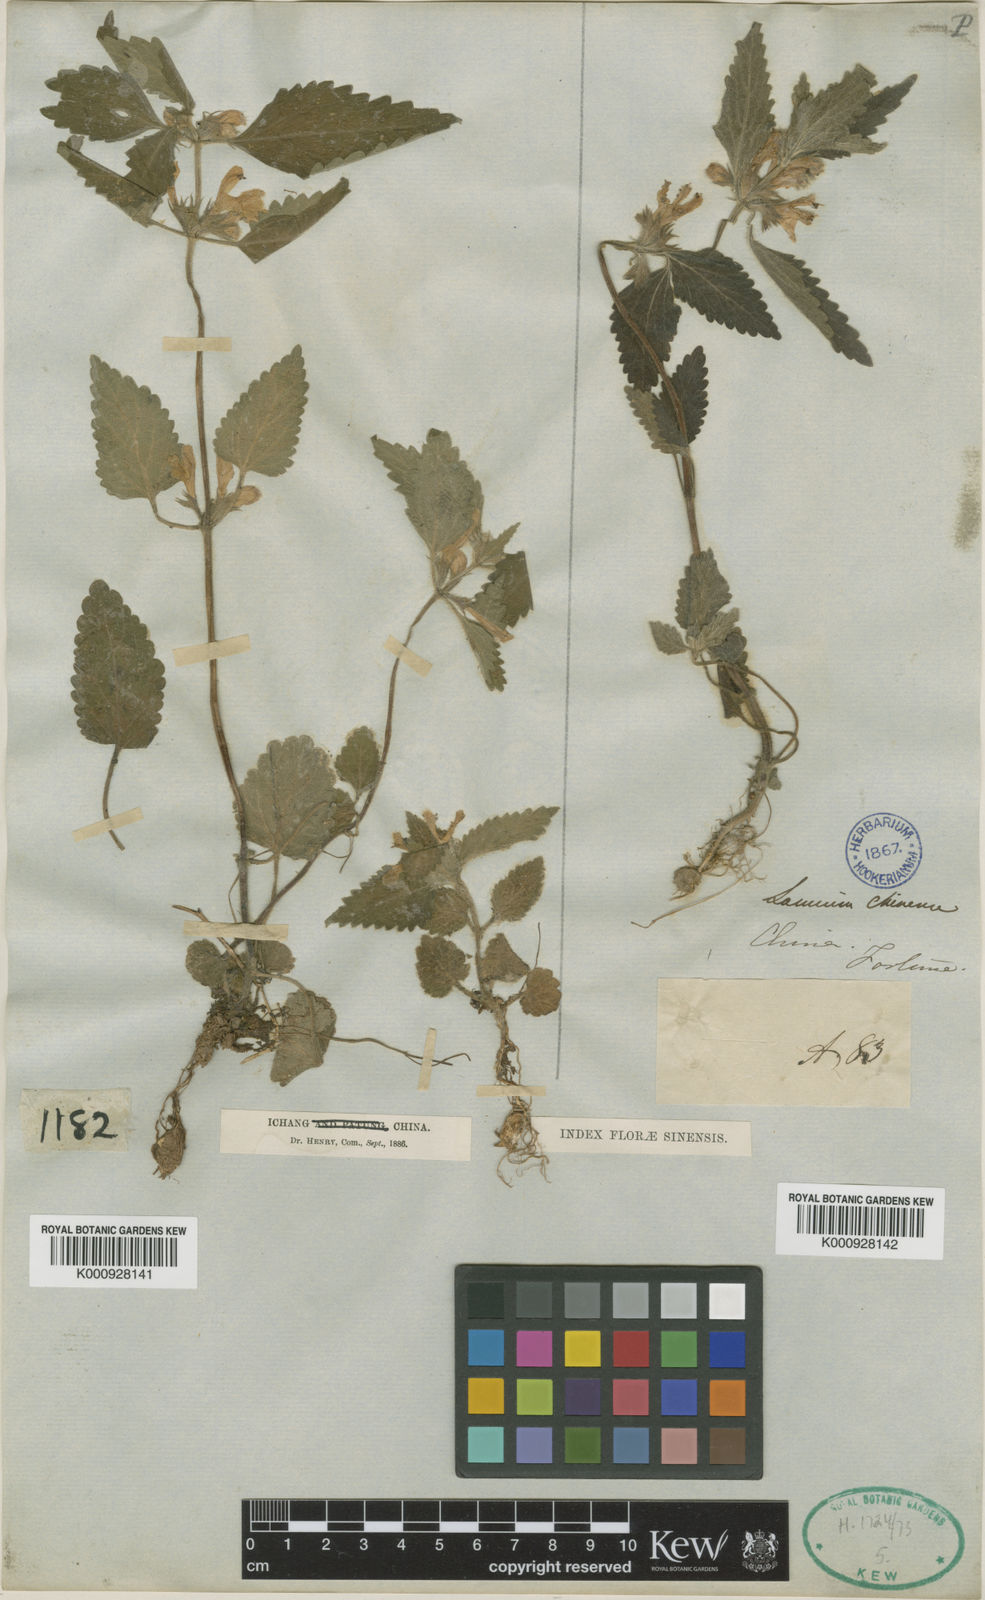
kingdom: Plantae
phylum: Tracheophyta
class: Magnoliopsida
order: Lamiales
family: Lamiaceae
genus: Matsumurella
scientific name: Matsumurella chinensis
